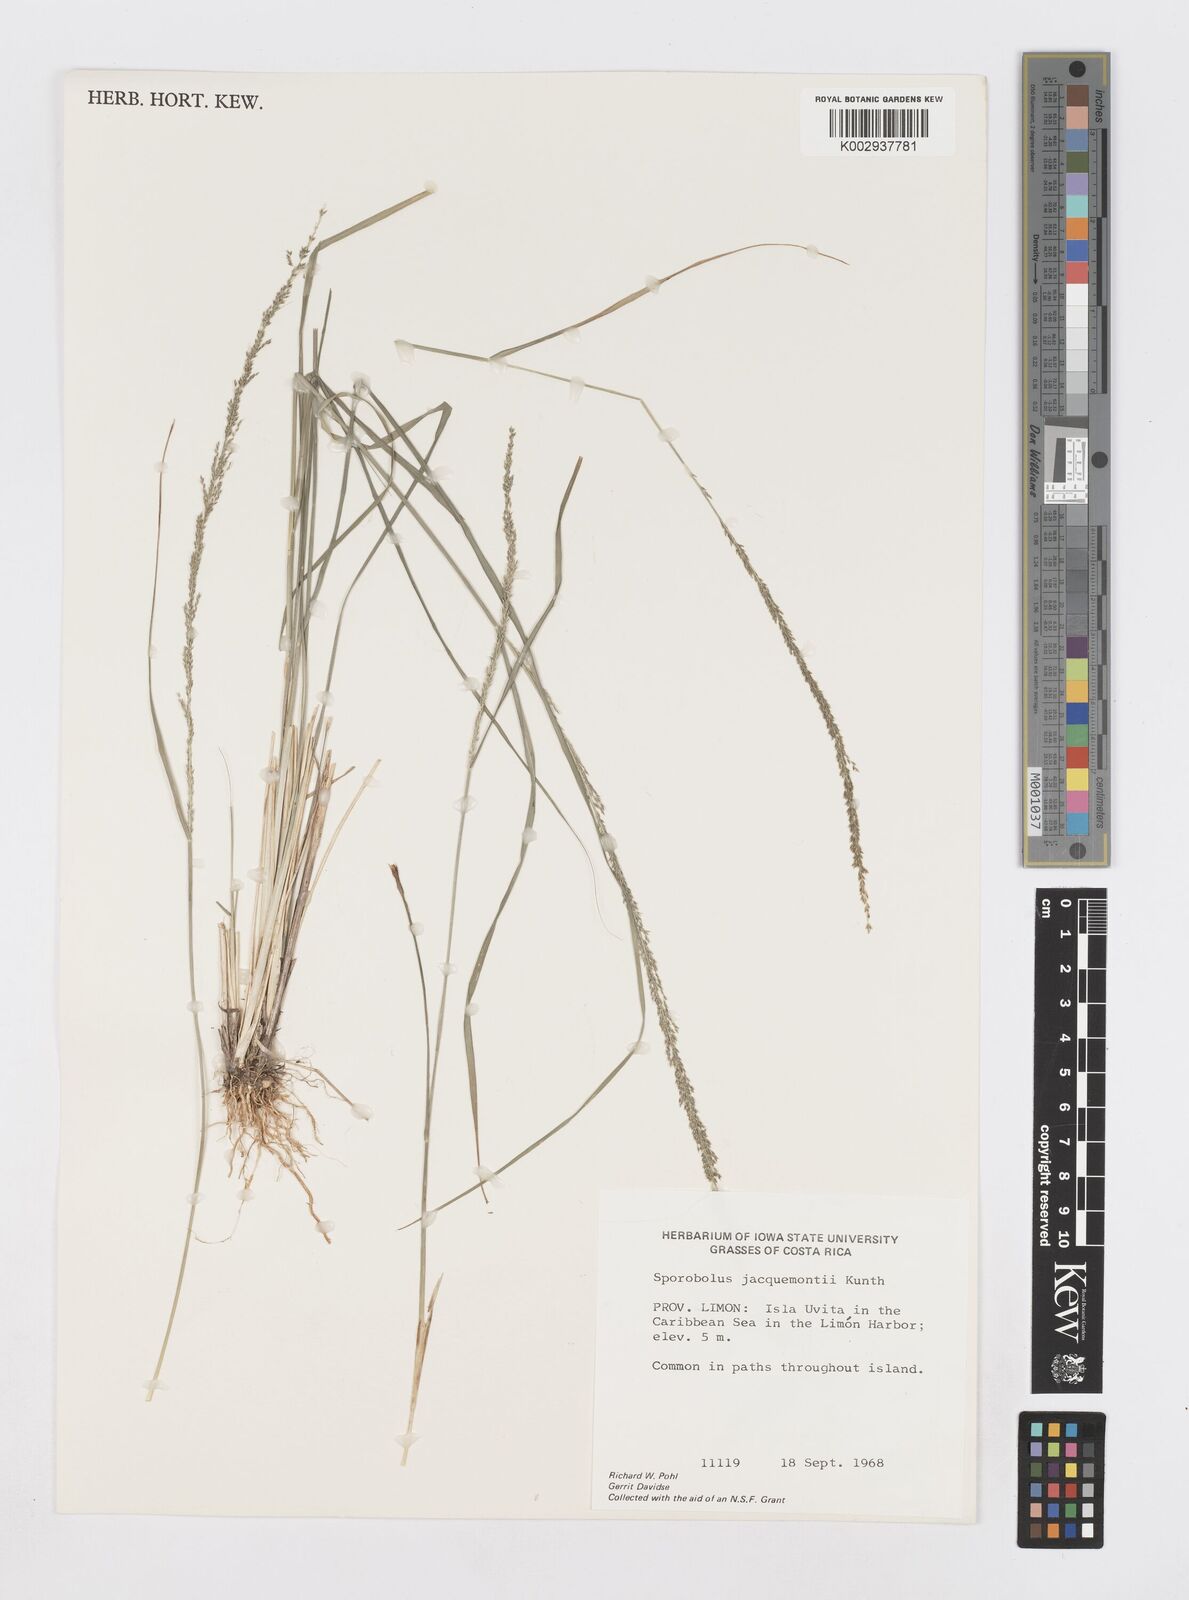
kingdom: Plantae
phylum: Tracheophyta
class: Liliopsida
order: Poales
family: Poaceae
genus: Sporobolus
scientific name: Sporobolus pyramidalis
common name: West indian dropseed
